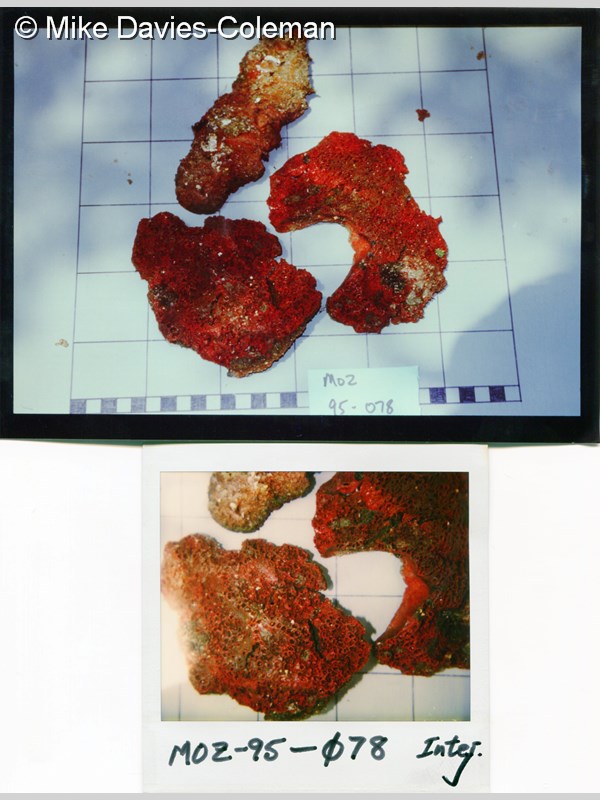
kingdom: Animalia
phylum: Porifera
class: Demospongiae
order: Bubarida
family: Dictyonellidae
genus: Acanthella
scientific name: Acanthella
